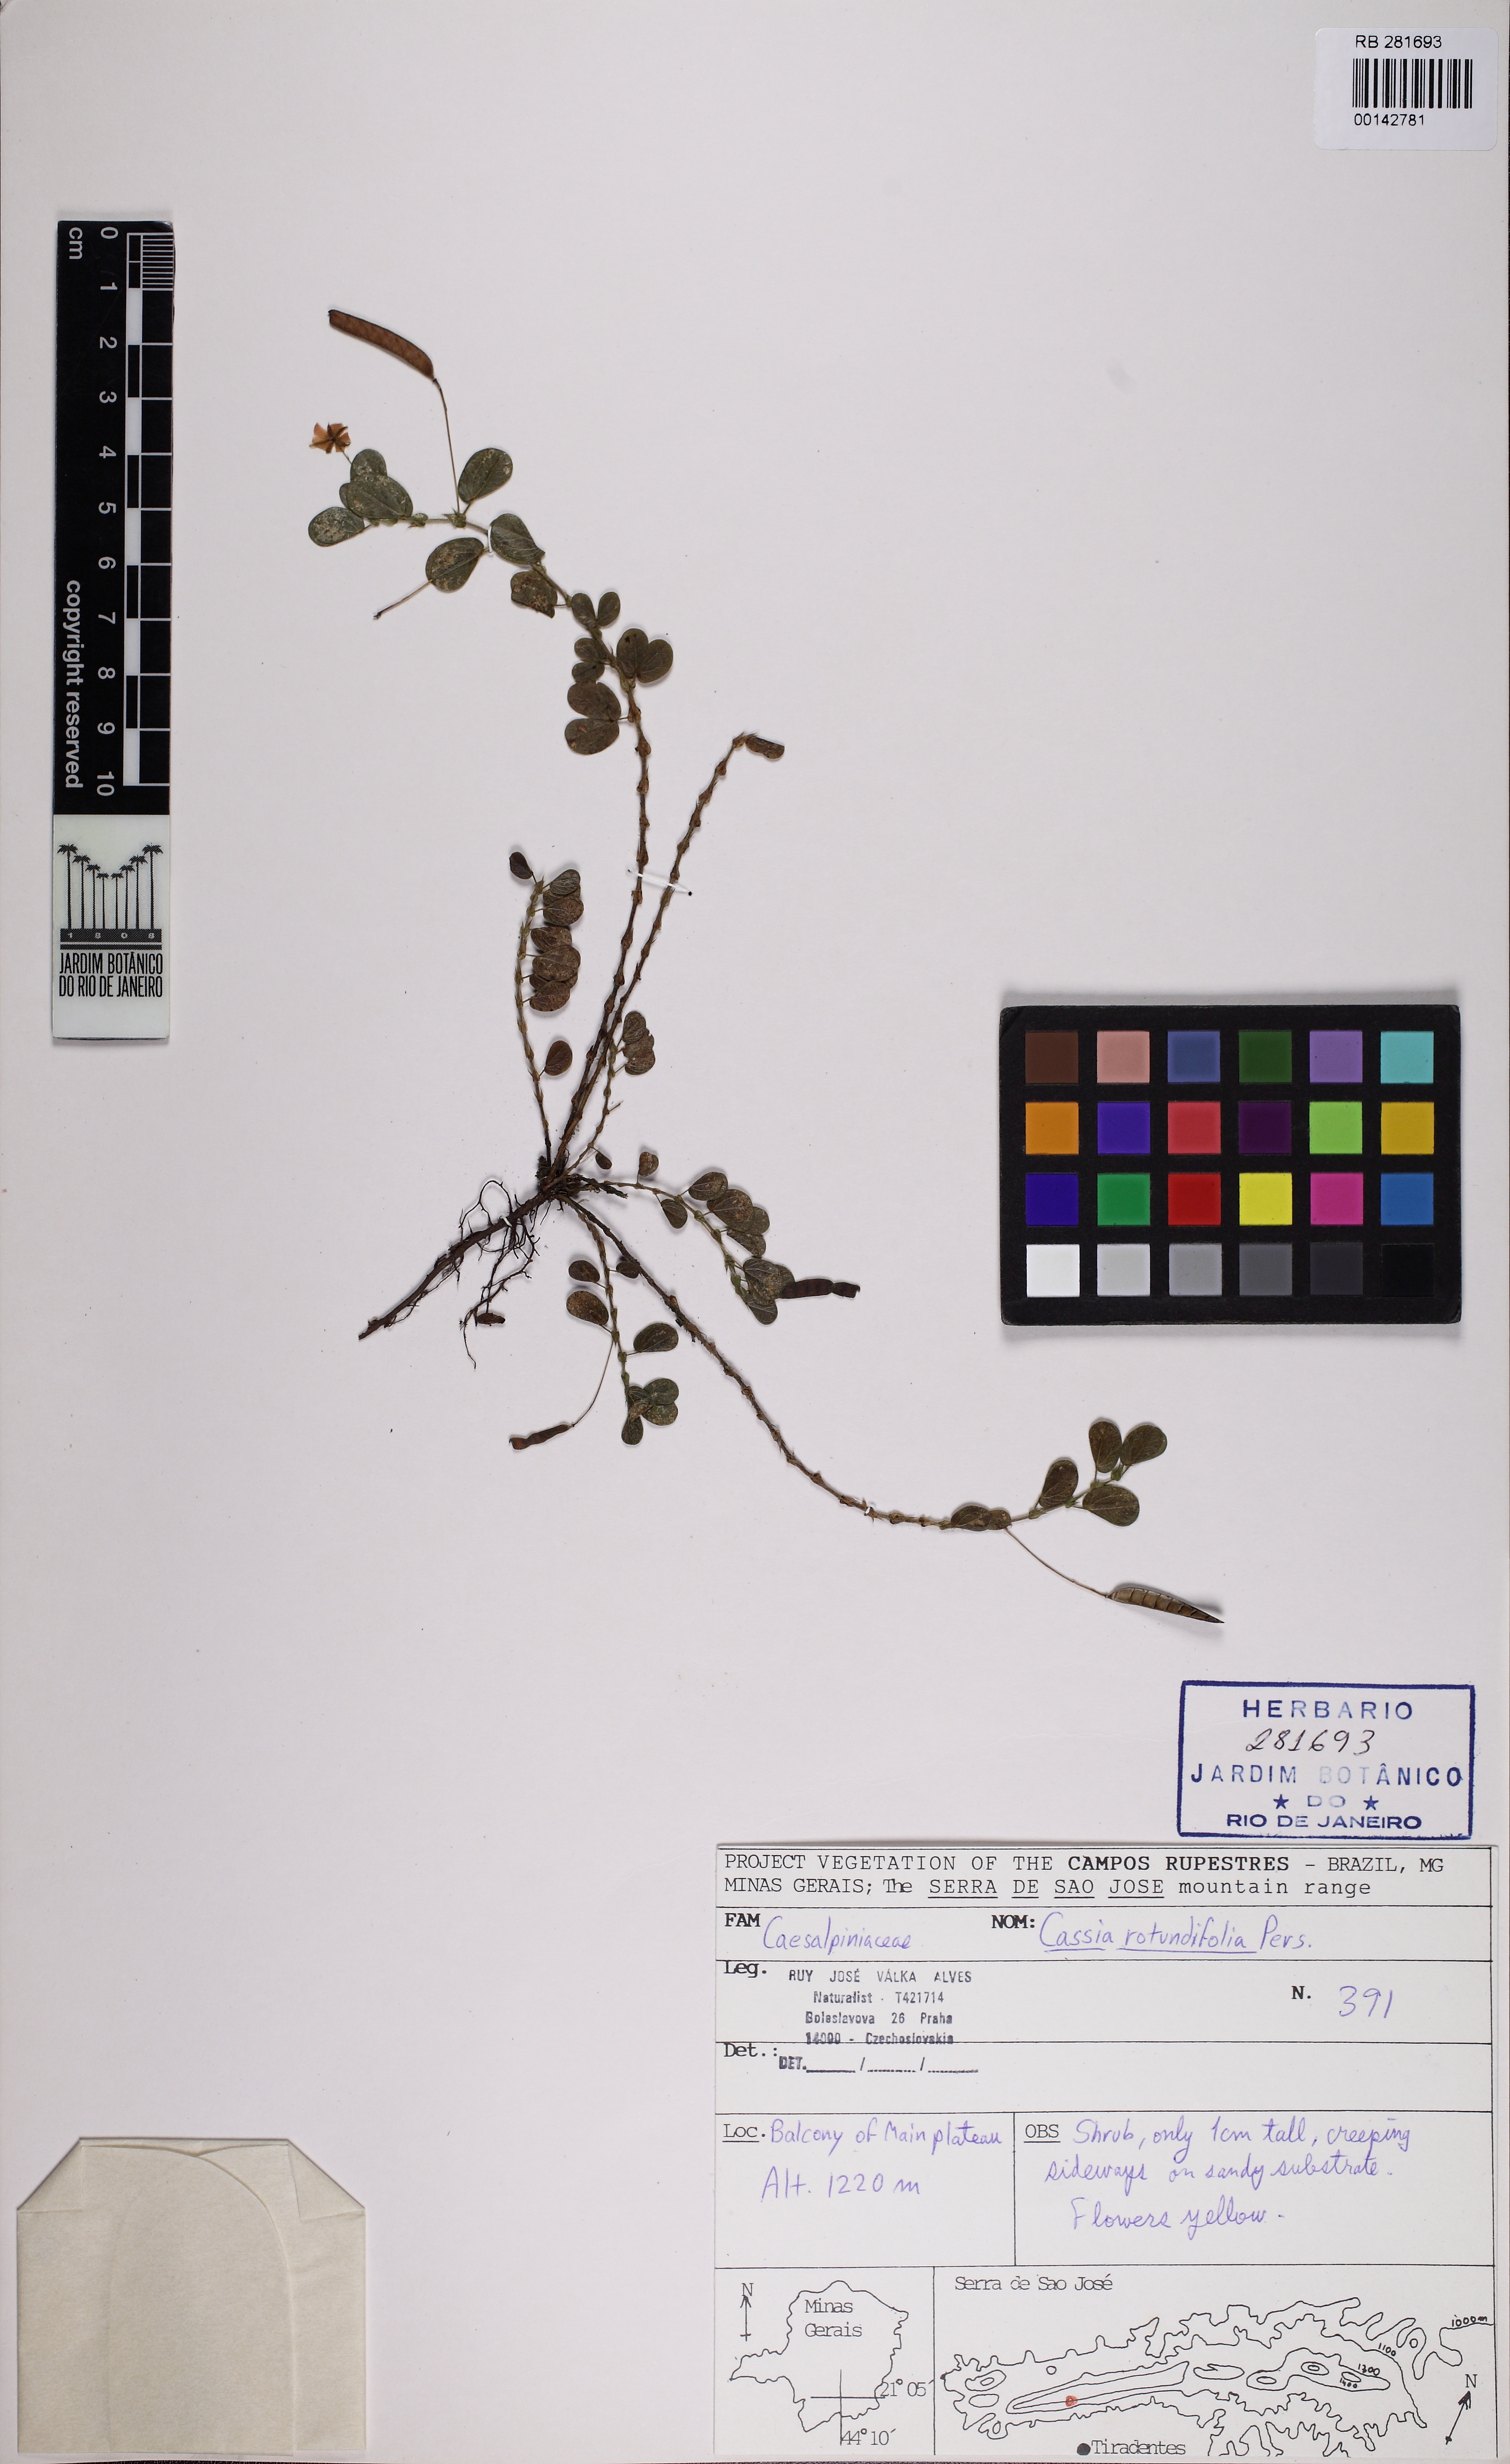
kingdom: Plantae
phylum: Tracheophyta
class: Magnoliopsida
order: Fabales
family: Fabaceae
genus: Chamaecrista
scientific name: Chamaecrista rotundifolia
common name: Round-leaf cassia
